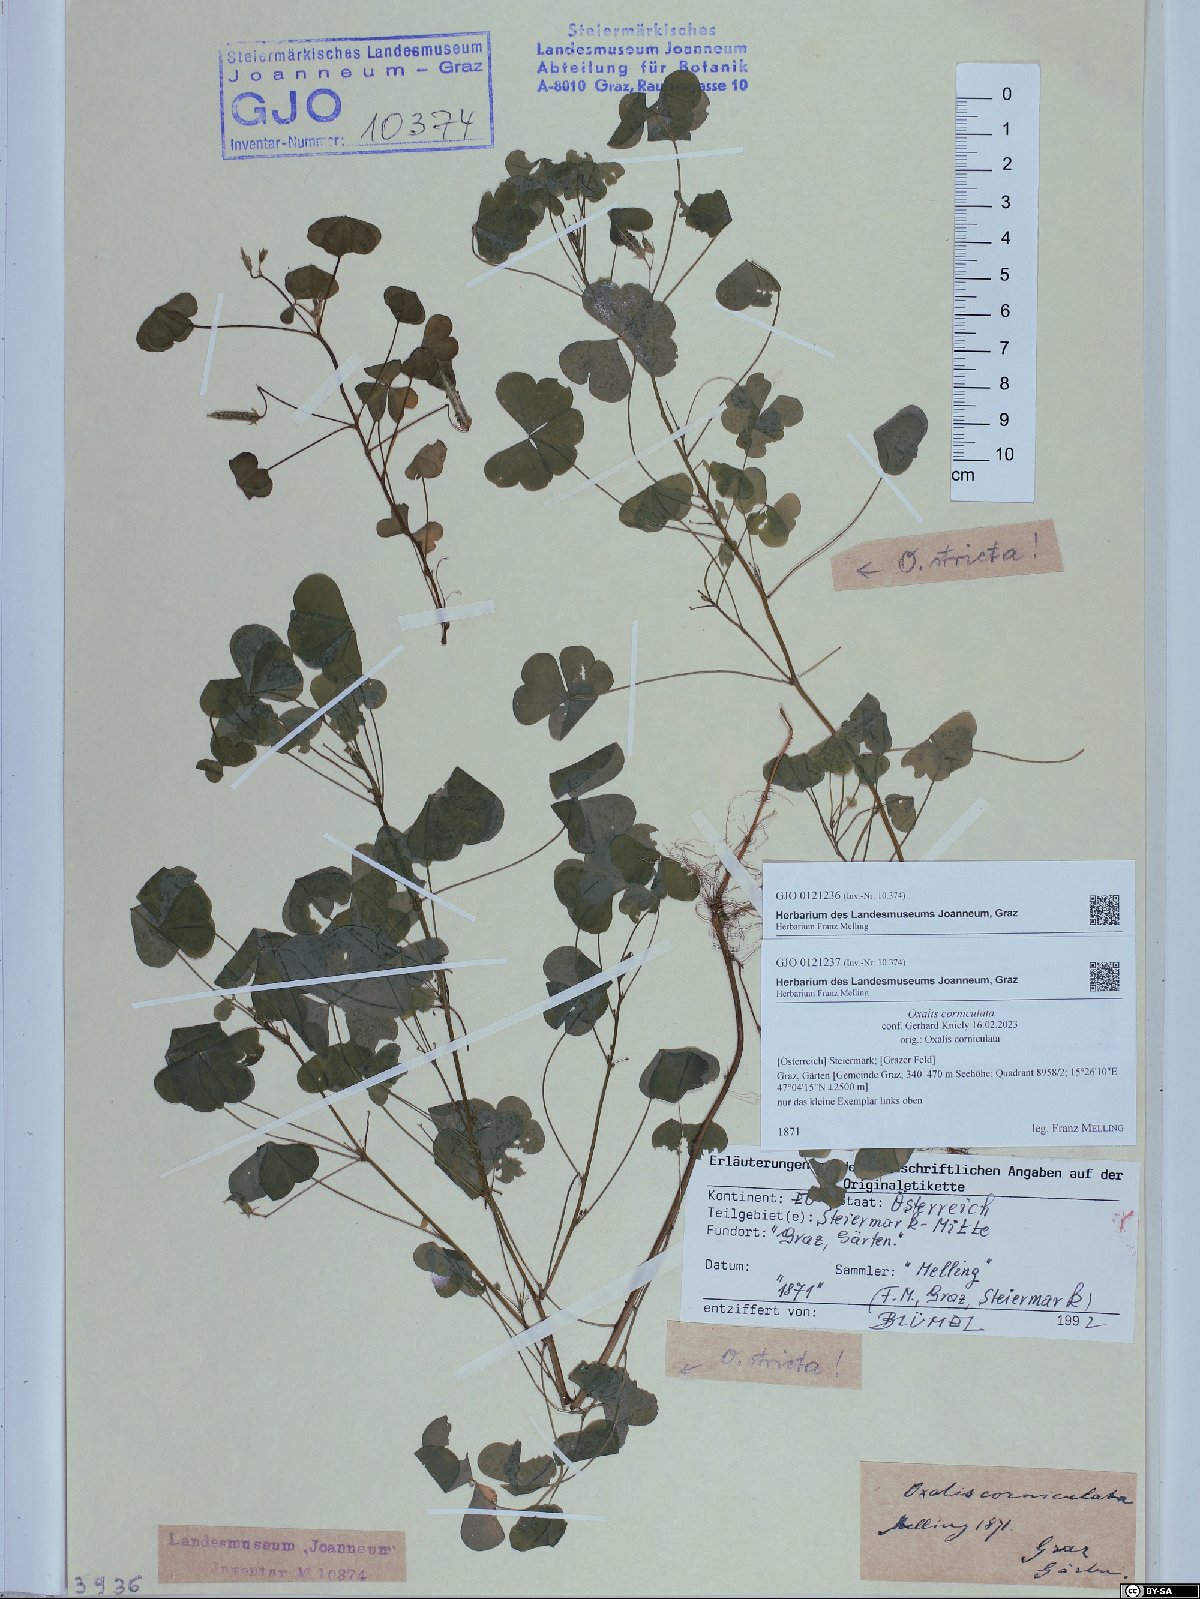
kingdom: Plantae
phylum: Tracheophyta
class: Magnoliopsida
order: Oxalidales
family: Oxalidaceae
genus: Oxalis
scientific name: Oxalis corniculata
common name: Procumbent yellow-sorrel
